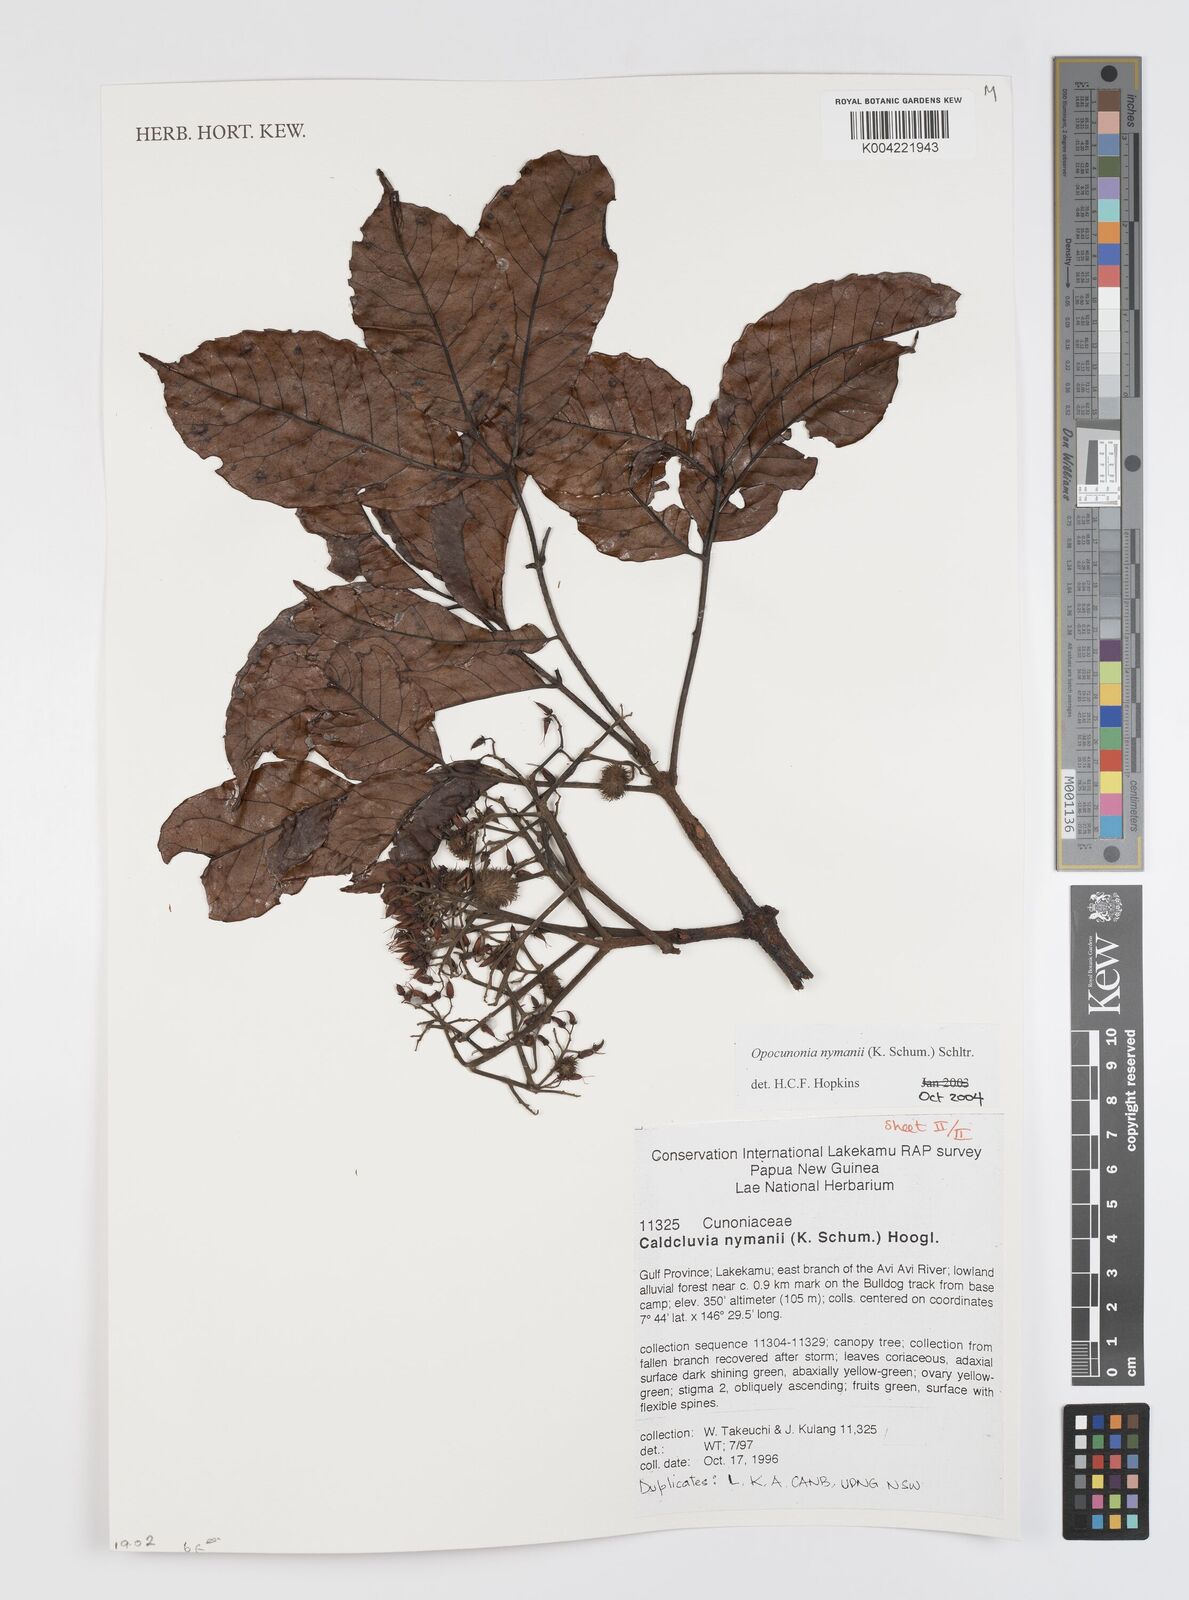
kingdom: Plantae
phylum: Tracheophyta
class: Magnoliopsida
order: Oxalidales
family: Cunoniaceae
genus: Opocunonia
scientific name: Opocunonia nymanii
